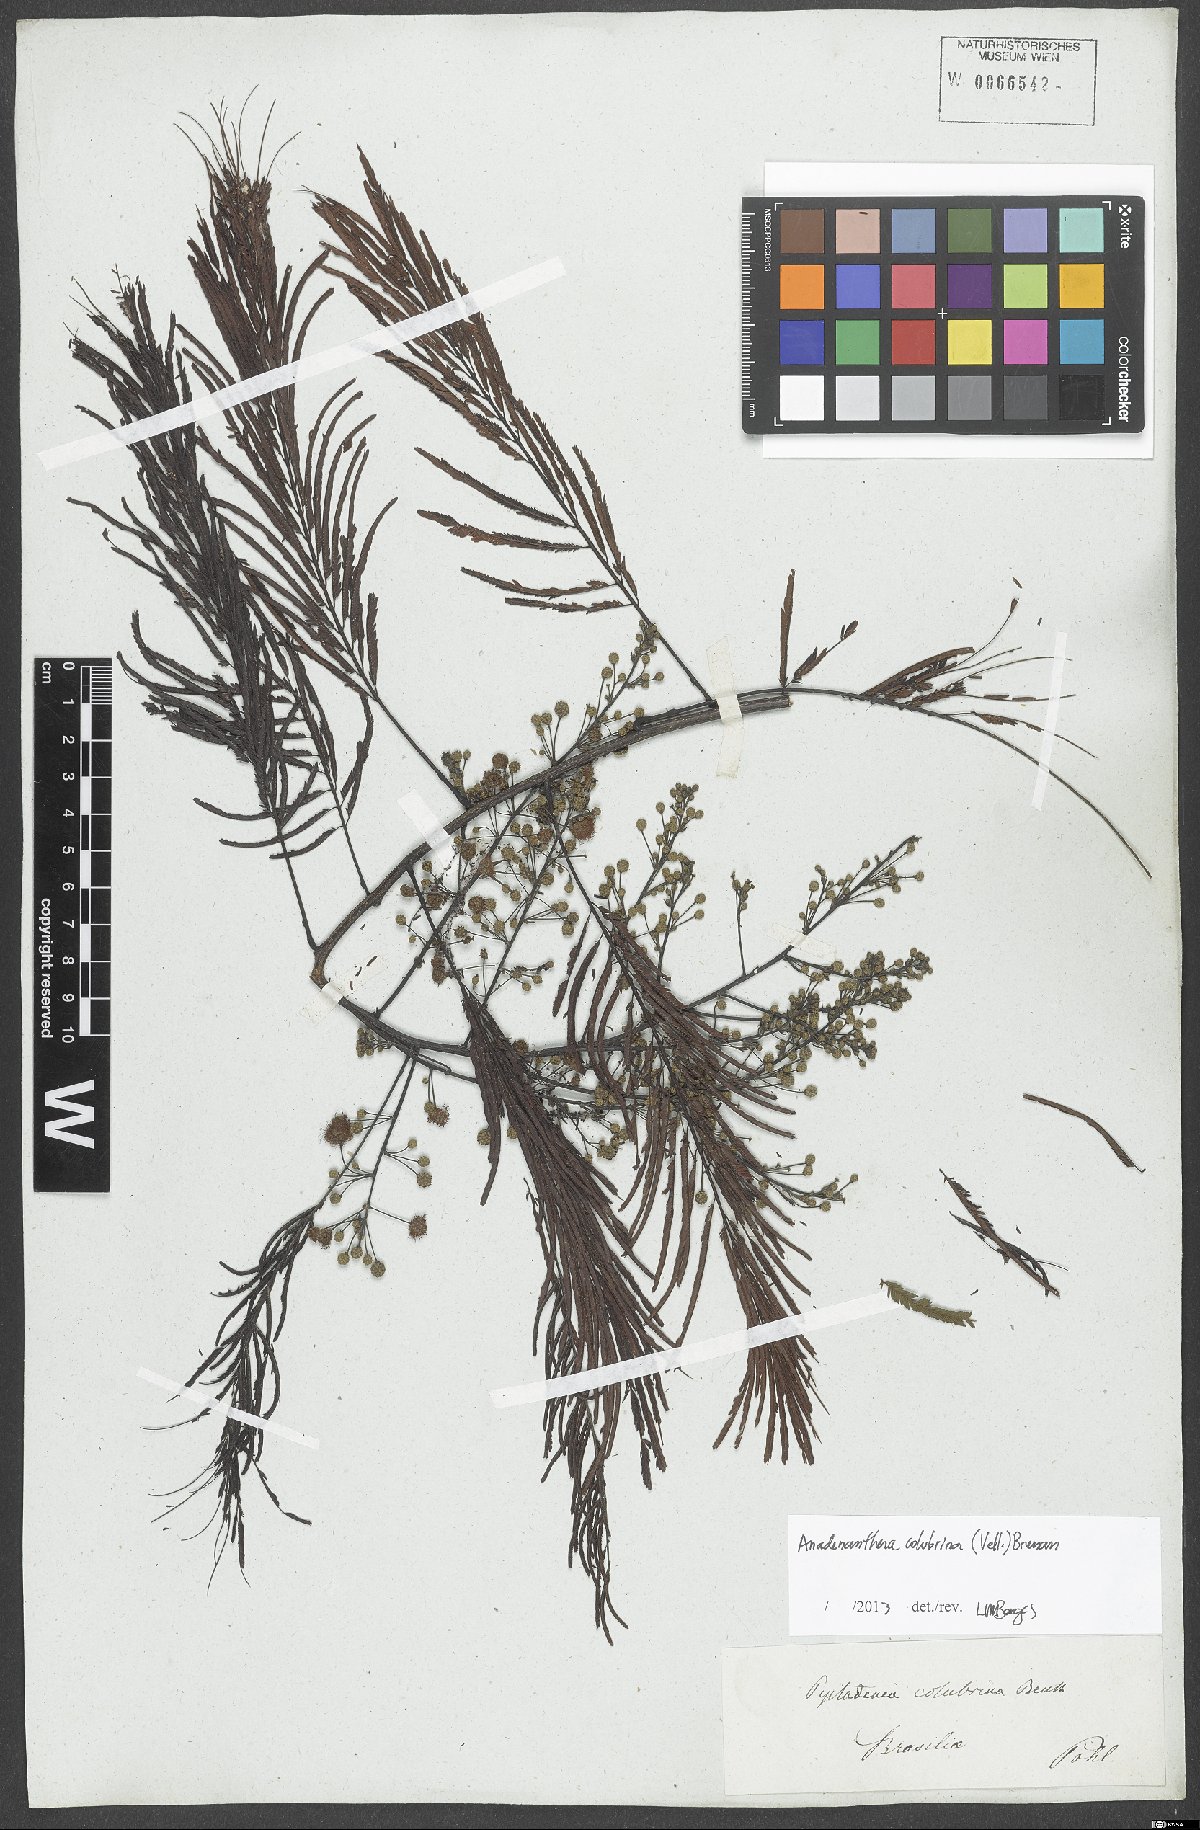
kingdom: Plantae
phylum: Tracheophyta
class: Magnoliopsida
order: Fabales
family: Fabaceae
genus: Anadenanthera
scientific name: Anadenanthera colubrina
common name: Curupay
